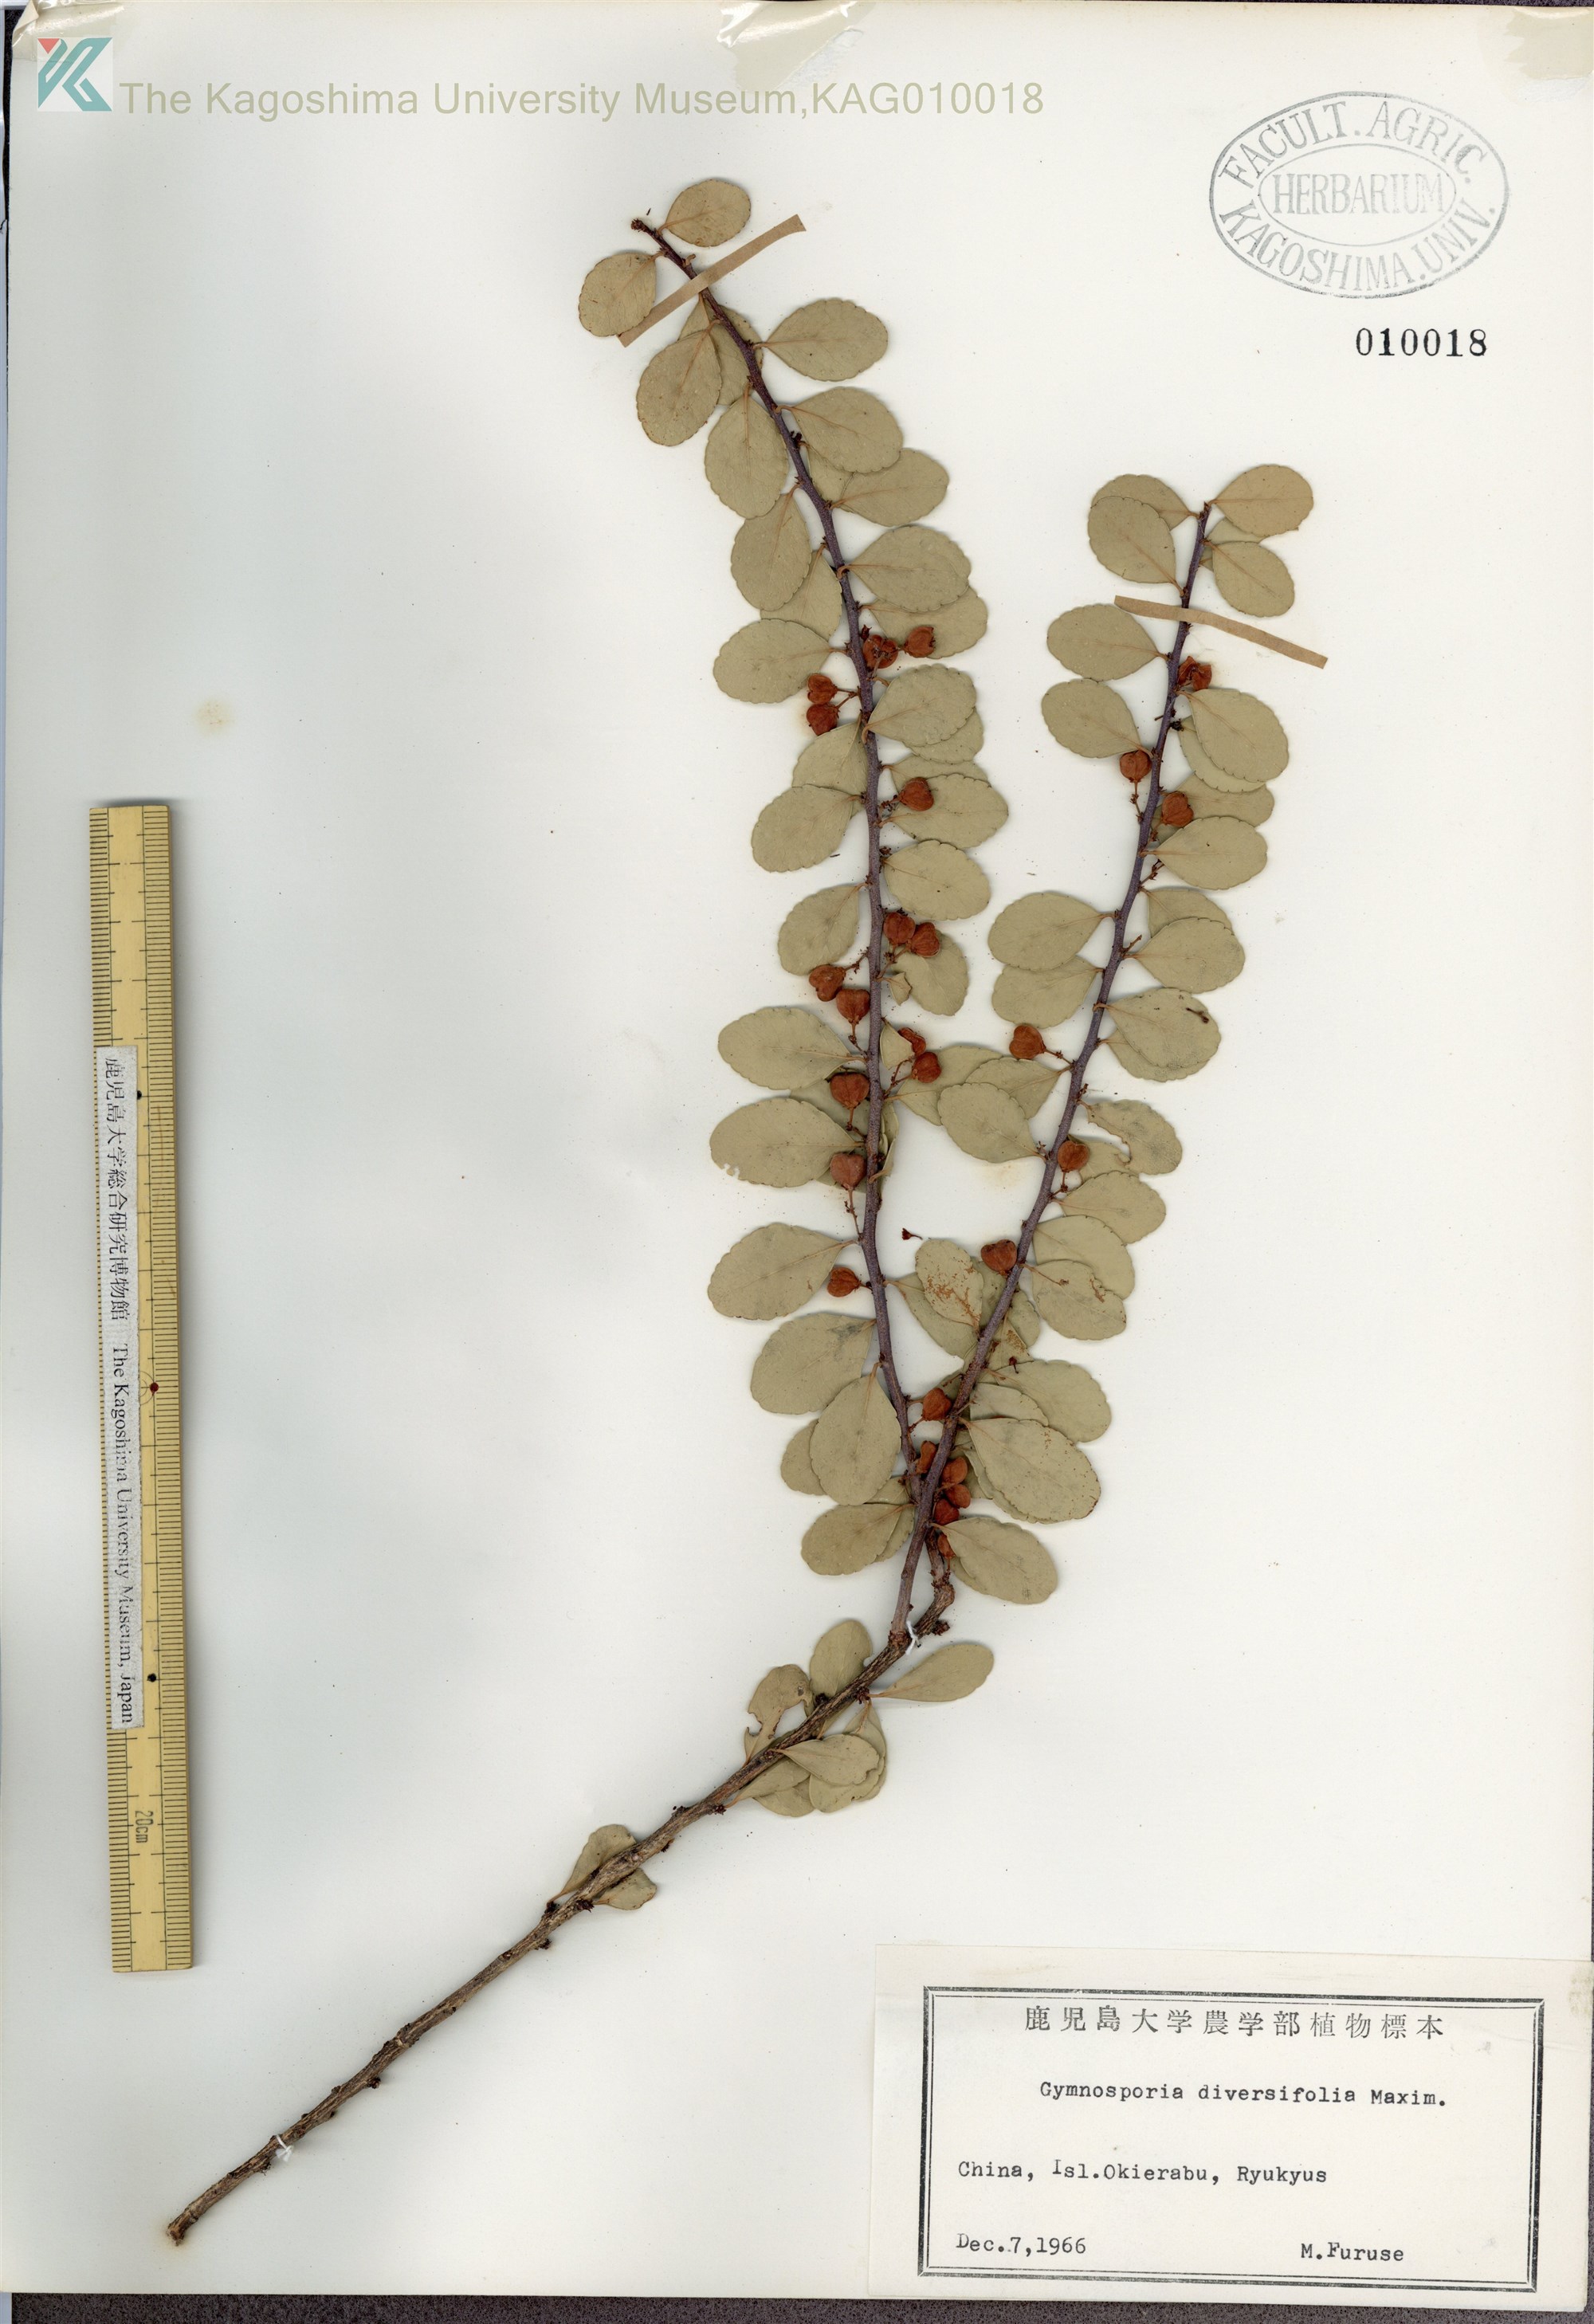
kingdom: Plantae
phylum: Tracheophyta
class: Magnoliopsida
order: Celastrales
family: Celastraceae
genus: Gymnosporia
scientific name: Gymnosporia diversifolia
